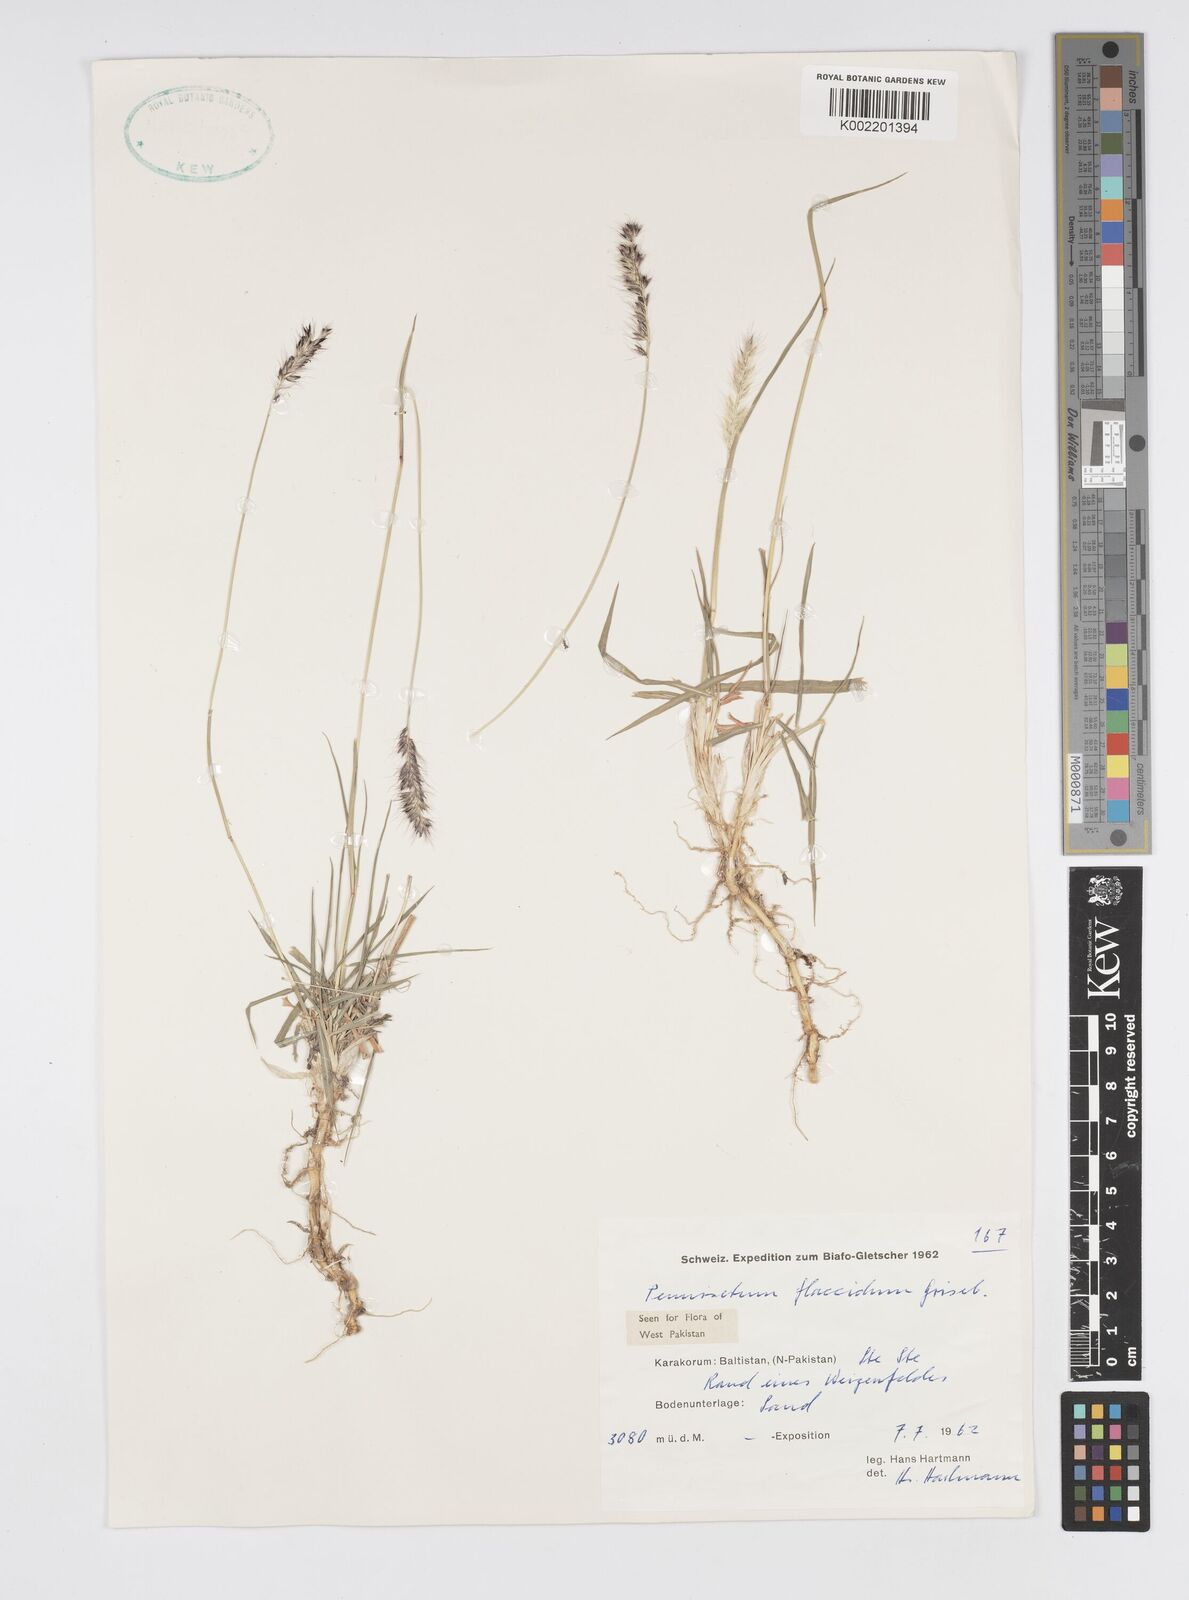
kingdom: Plantae
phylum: Tracheophyta
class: Liliopsida
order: Poales
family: Poaceae
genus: Cenchrus
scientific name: Cenchrus flaccidus
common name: Flaccid grass
